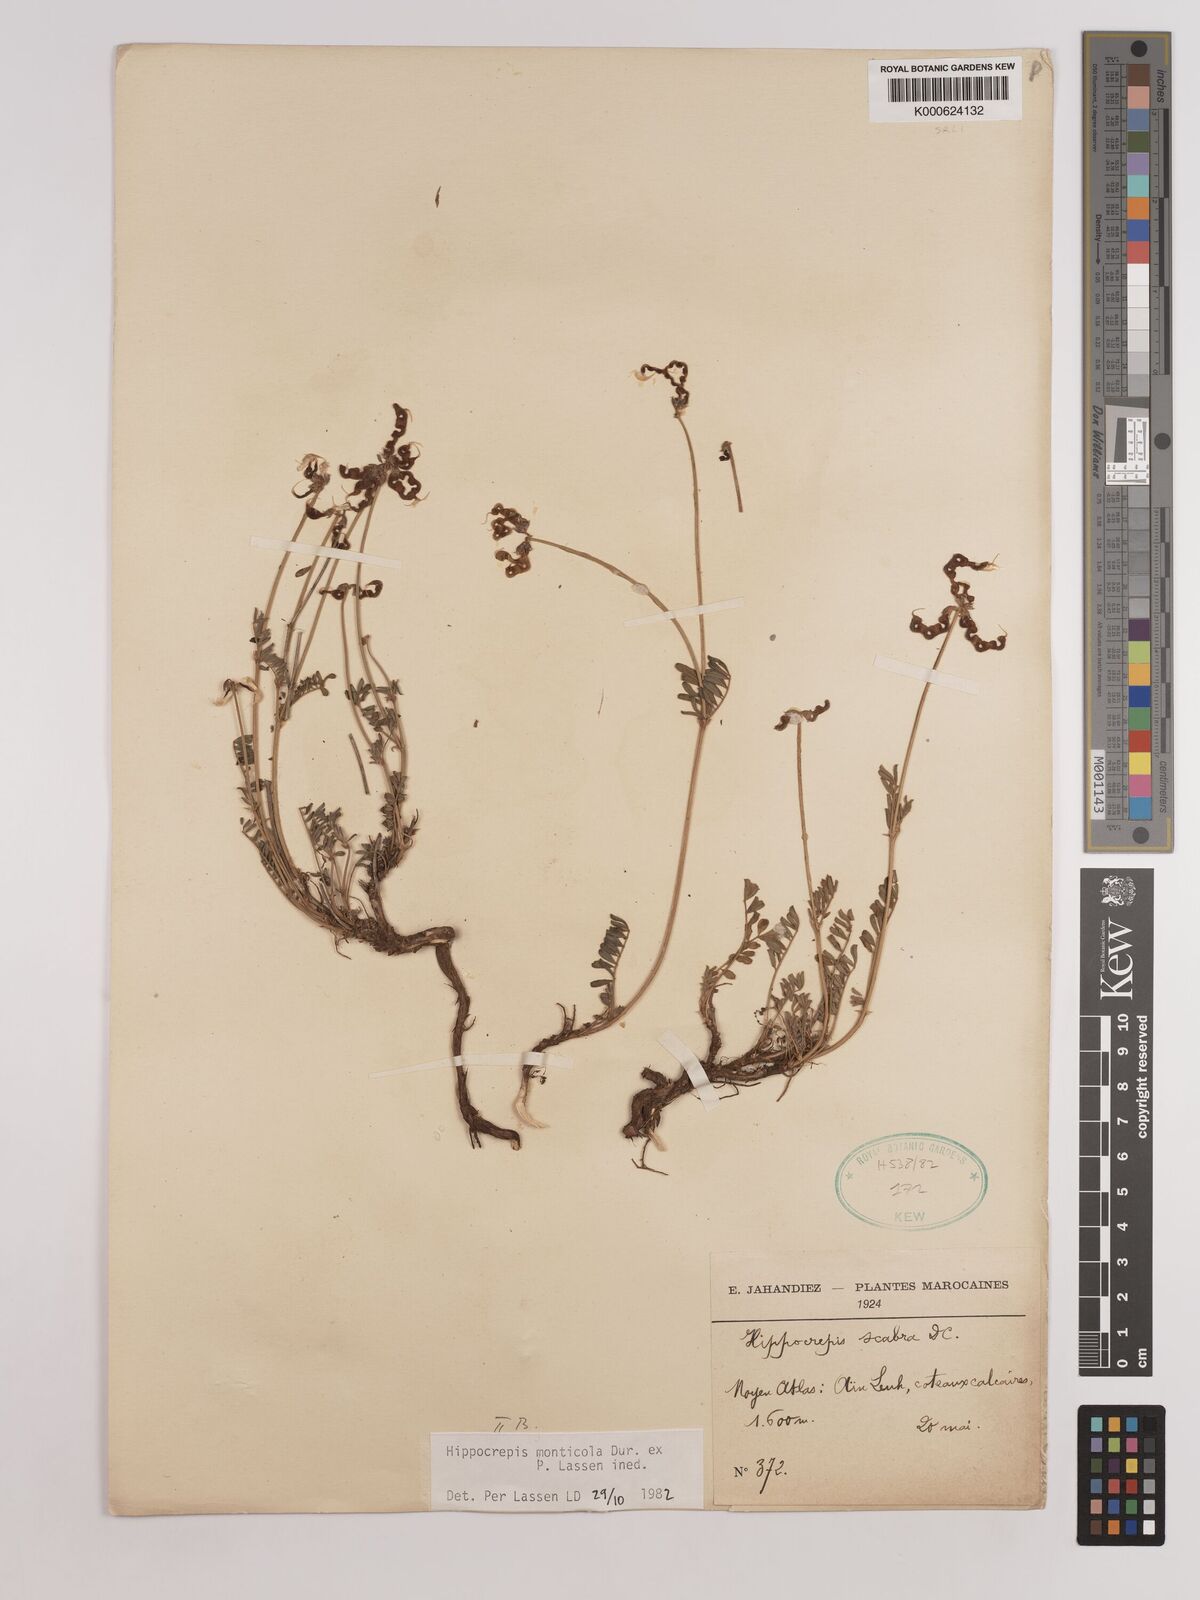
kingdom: Plantae
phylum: Tracheophyta
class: Magnoliopsida
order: Fabales
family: Fabaceae
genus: Hippocrepis
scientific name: Hippocrepis monticola
